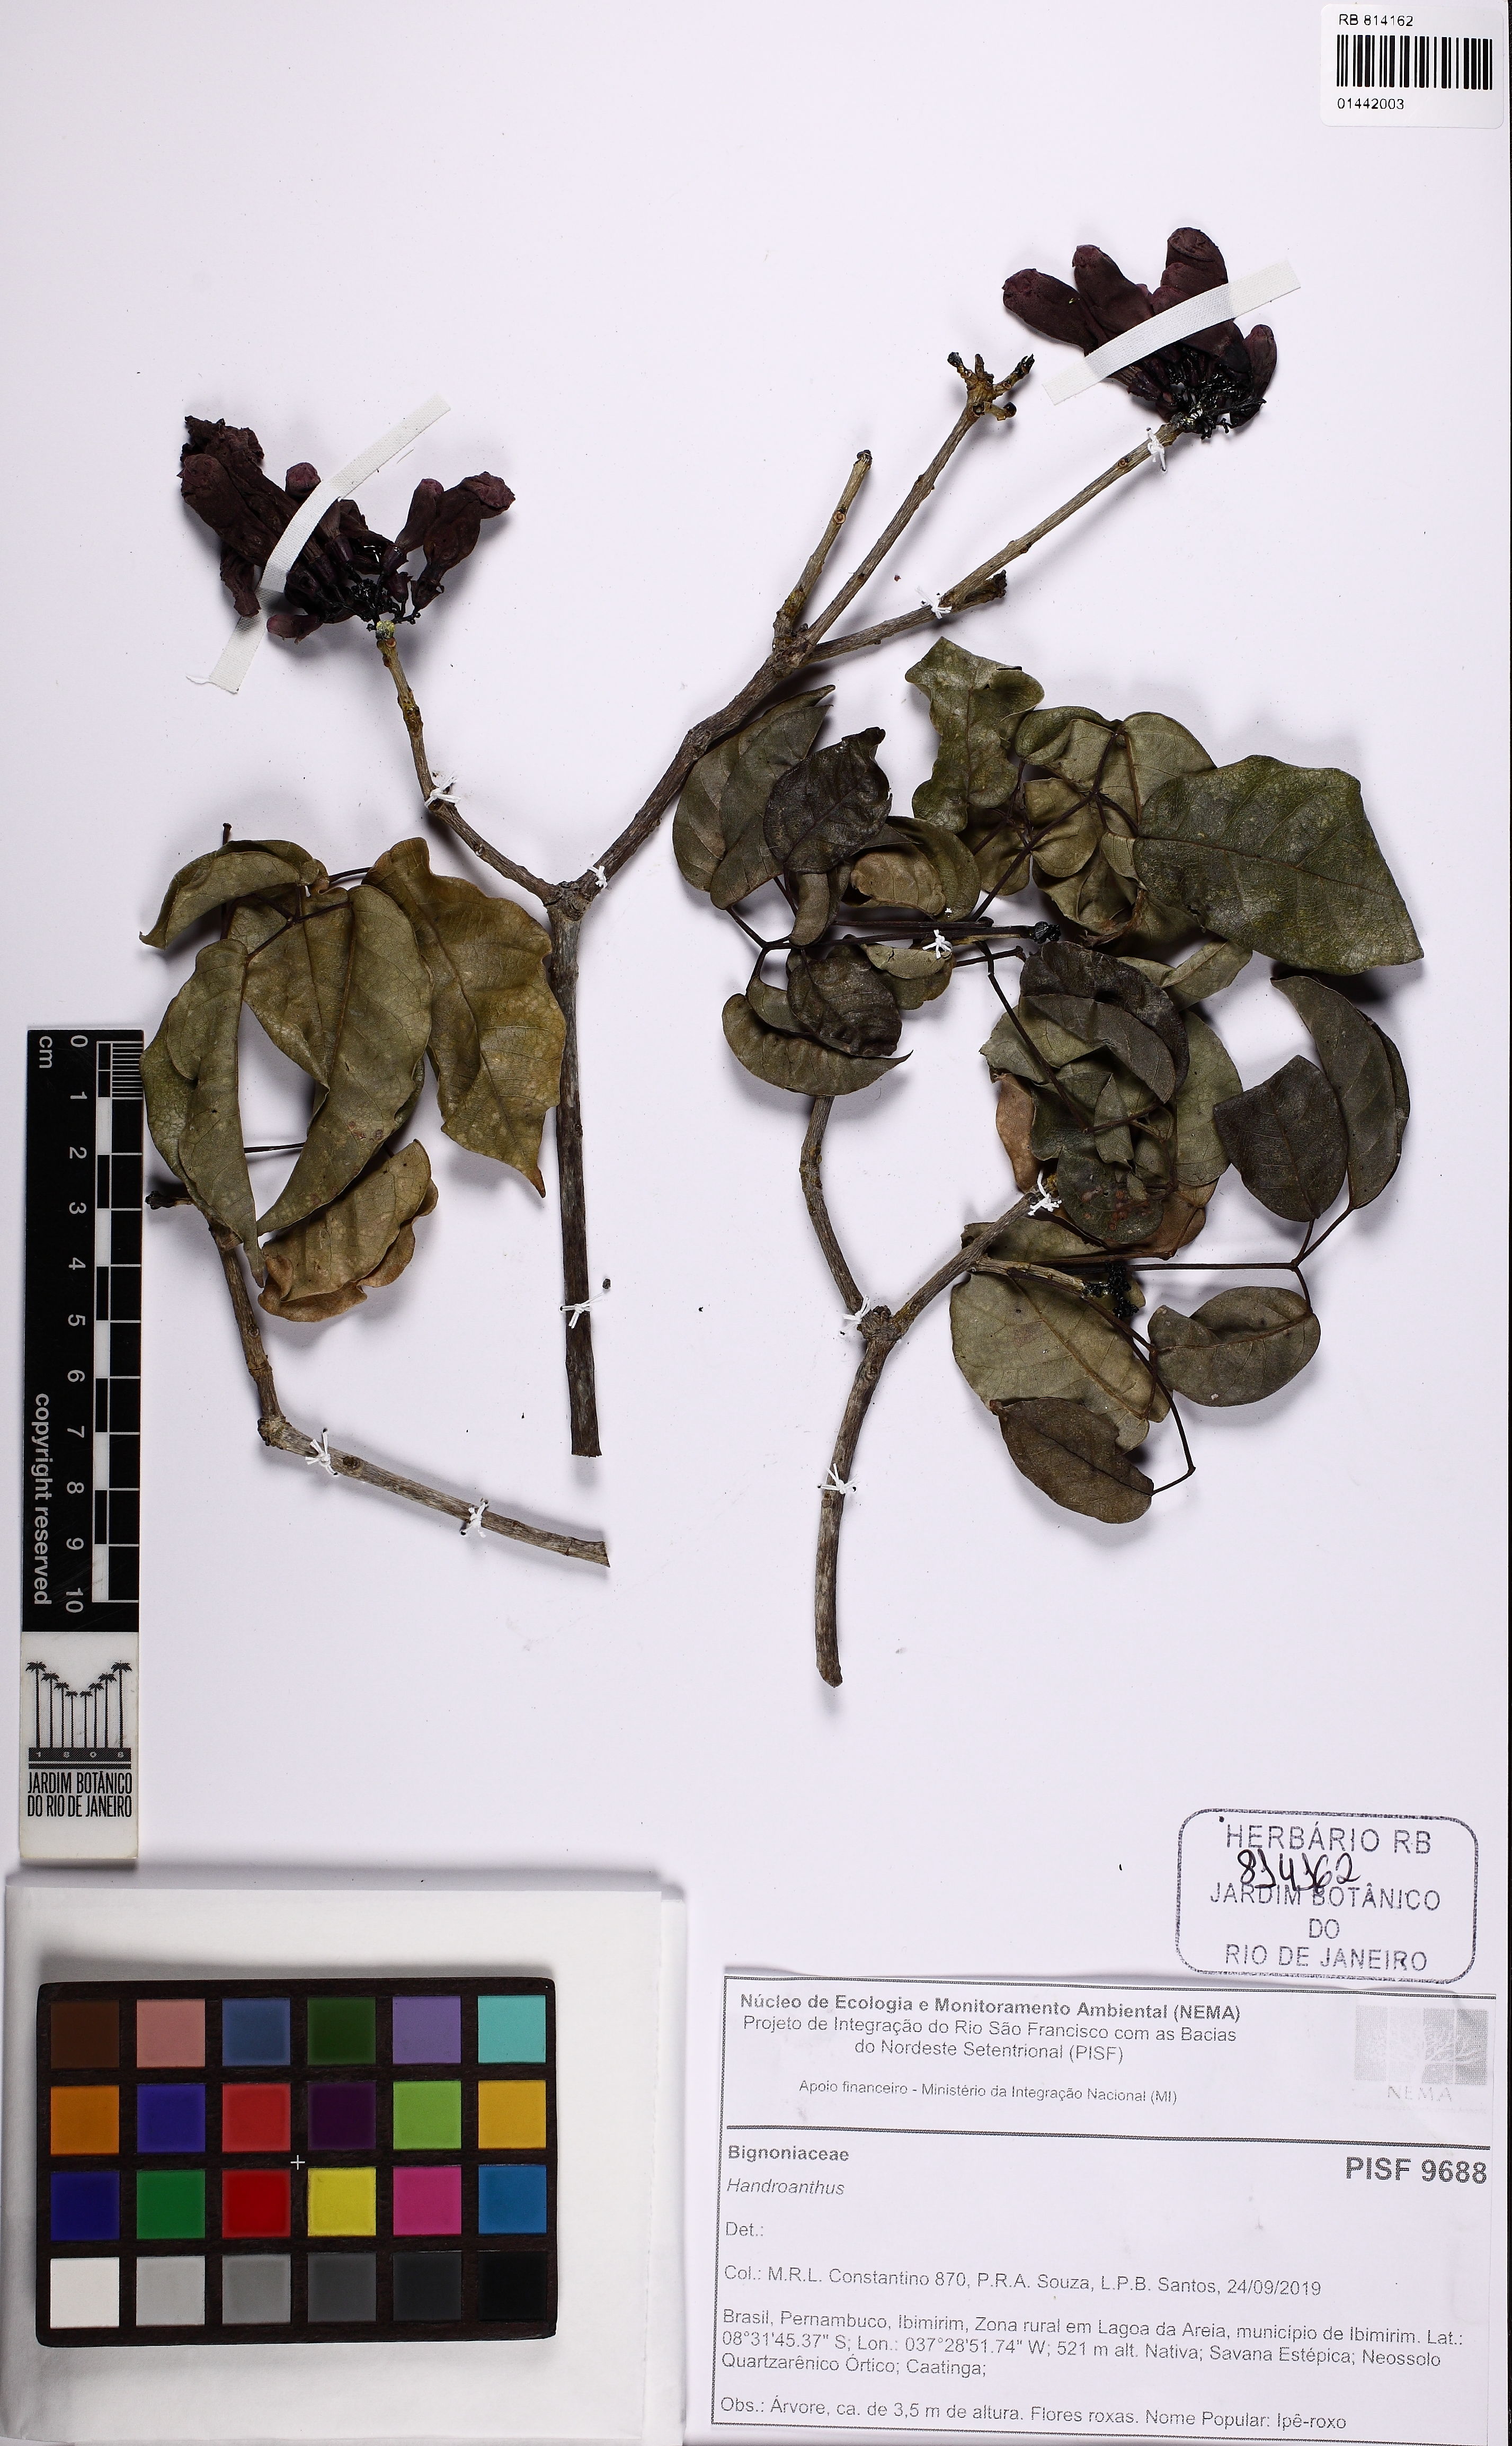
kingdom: Plantae
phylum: Tracheophyta
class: Magnoliopsida
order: Lamiales
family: Bignoniaceae
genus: Handroanthus
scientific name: Handroanthus
